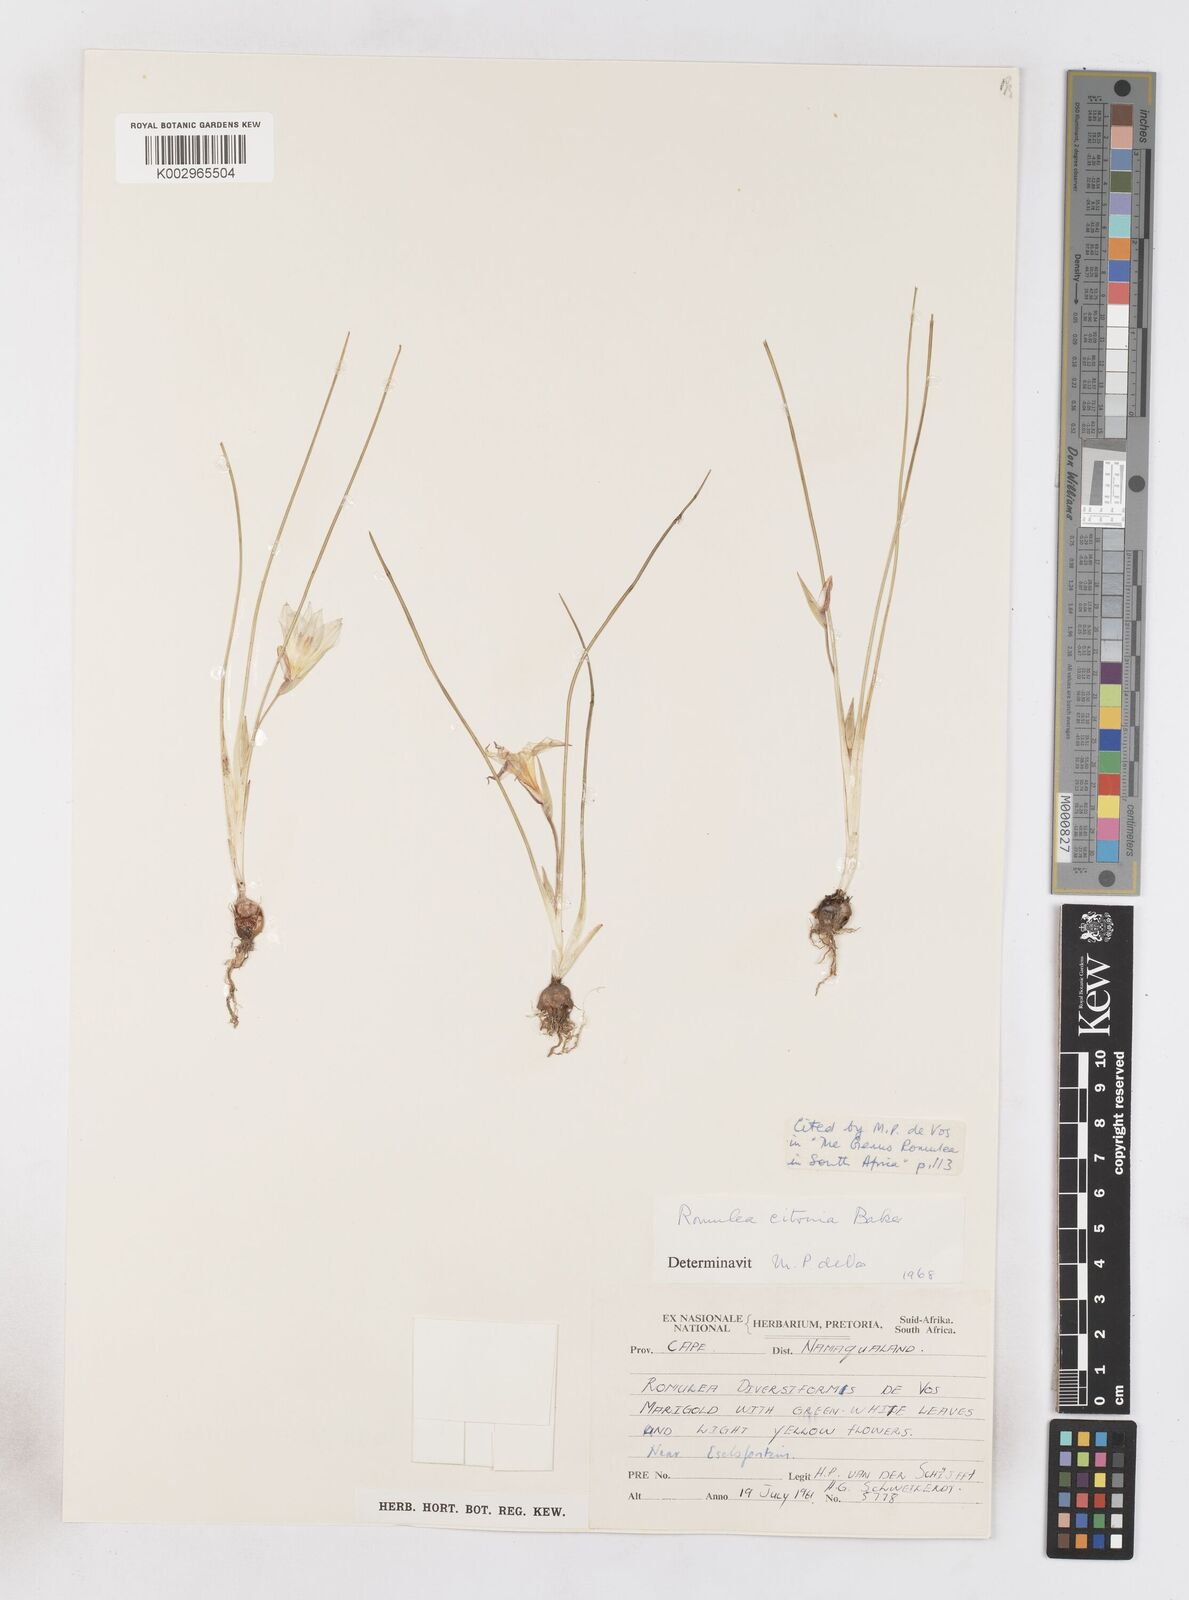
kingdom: Plantae
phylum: Tracheophyta
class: Liliopsida
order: Asparagales
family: Iridaceae
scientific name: Iridaceae
